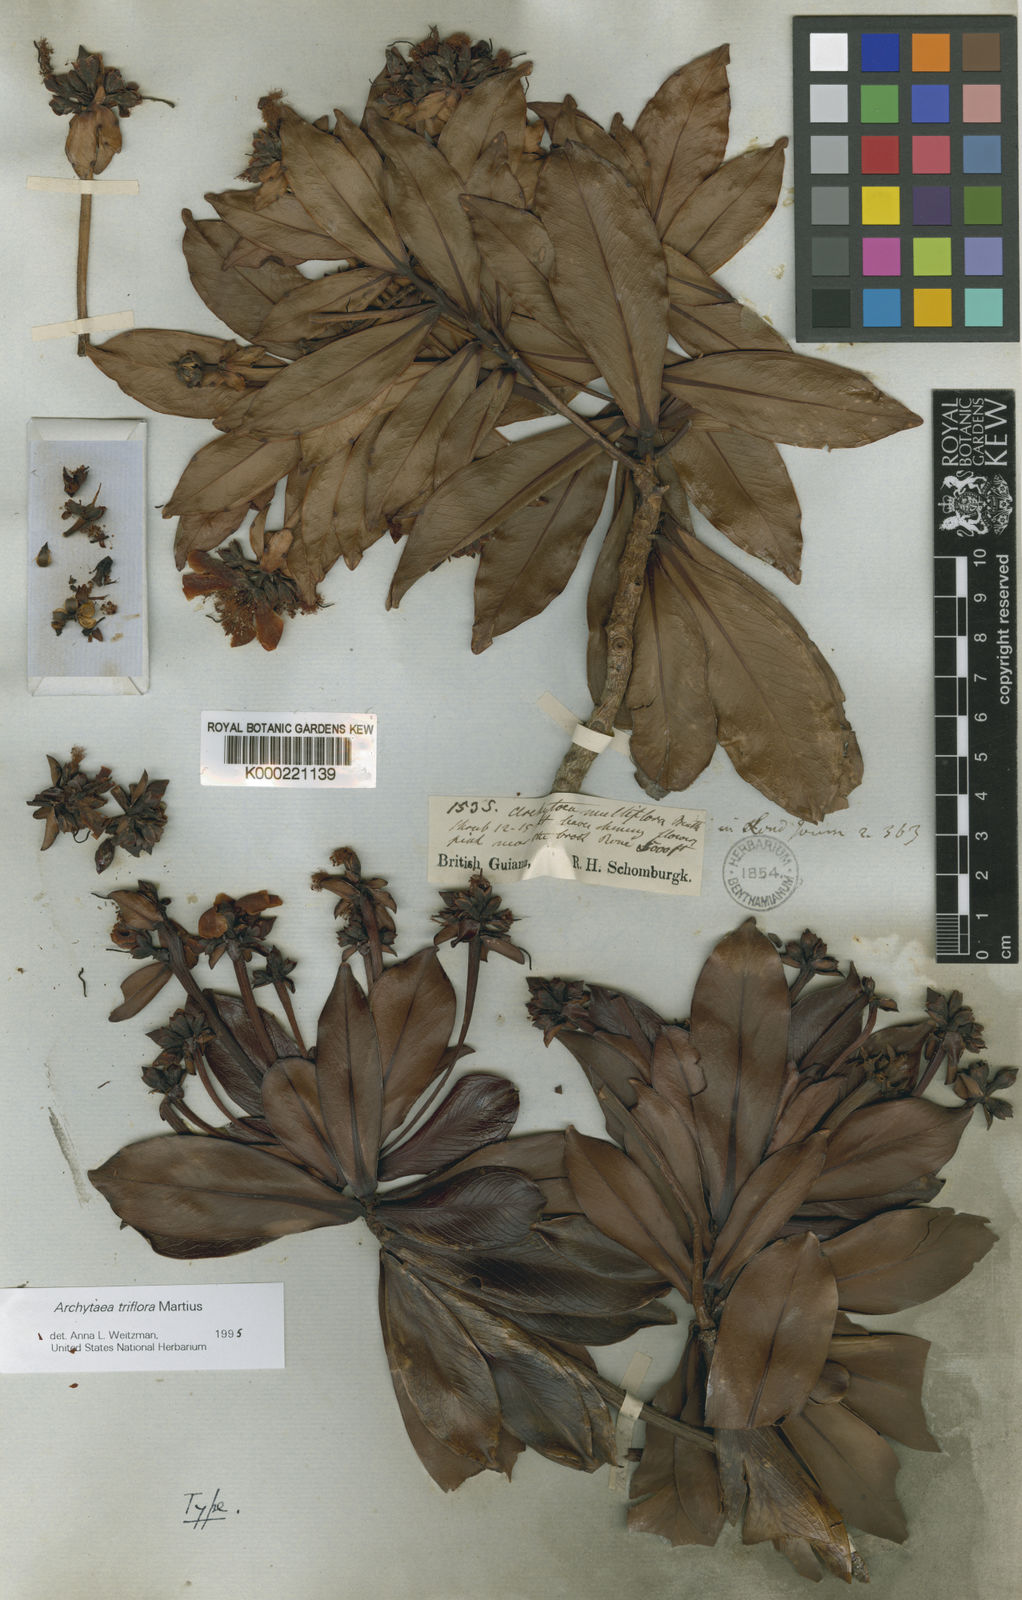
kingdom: Plantae
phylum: Tracheophyta
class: Magnoliopsida
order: Malpighiales
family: Bonnetiaceae
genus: Archytaea
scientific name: Archytaea triflora
